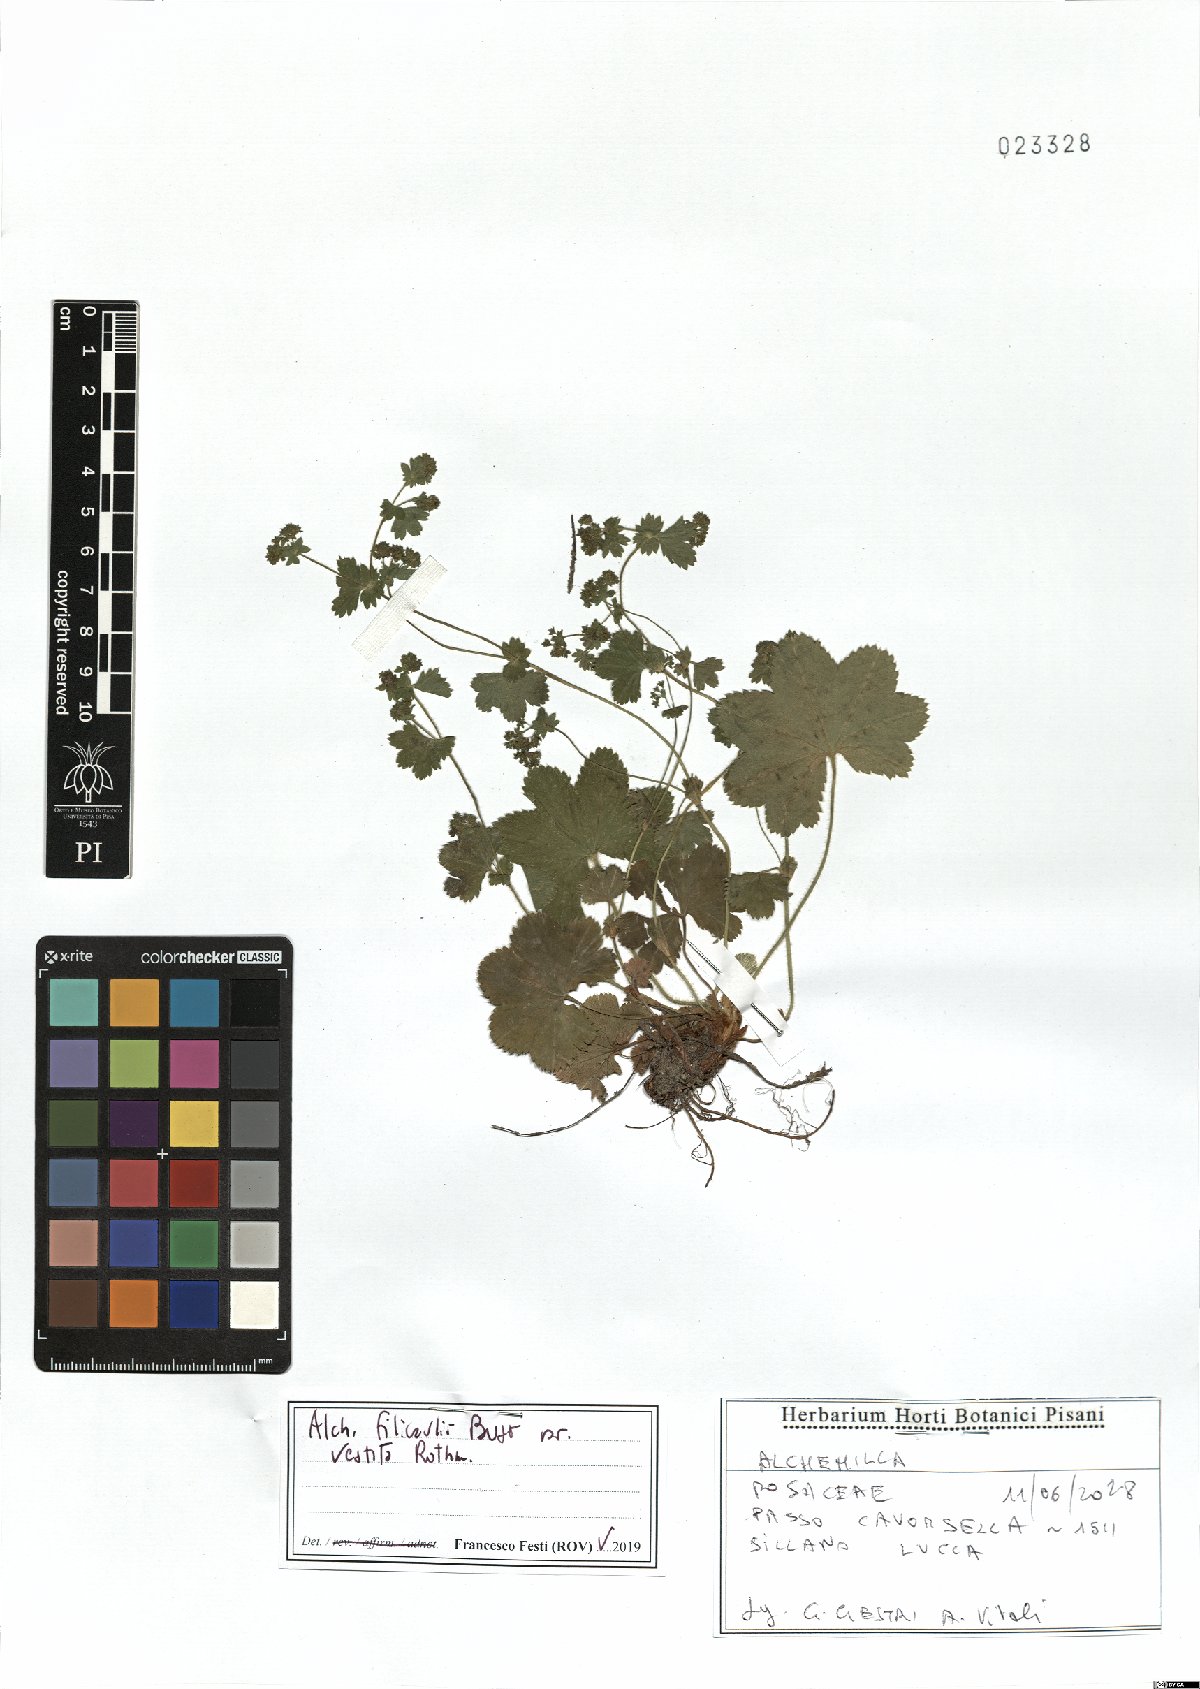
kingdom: Plantae
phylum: Tracheophyta
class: Magnoliopsida
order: Rosales
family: Rosaceae
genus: Alchemilla
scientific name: Alchemilla filicaulis
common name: Hairy lady's-mantle
